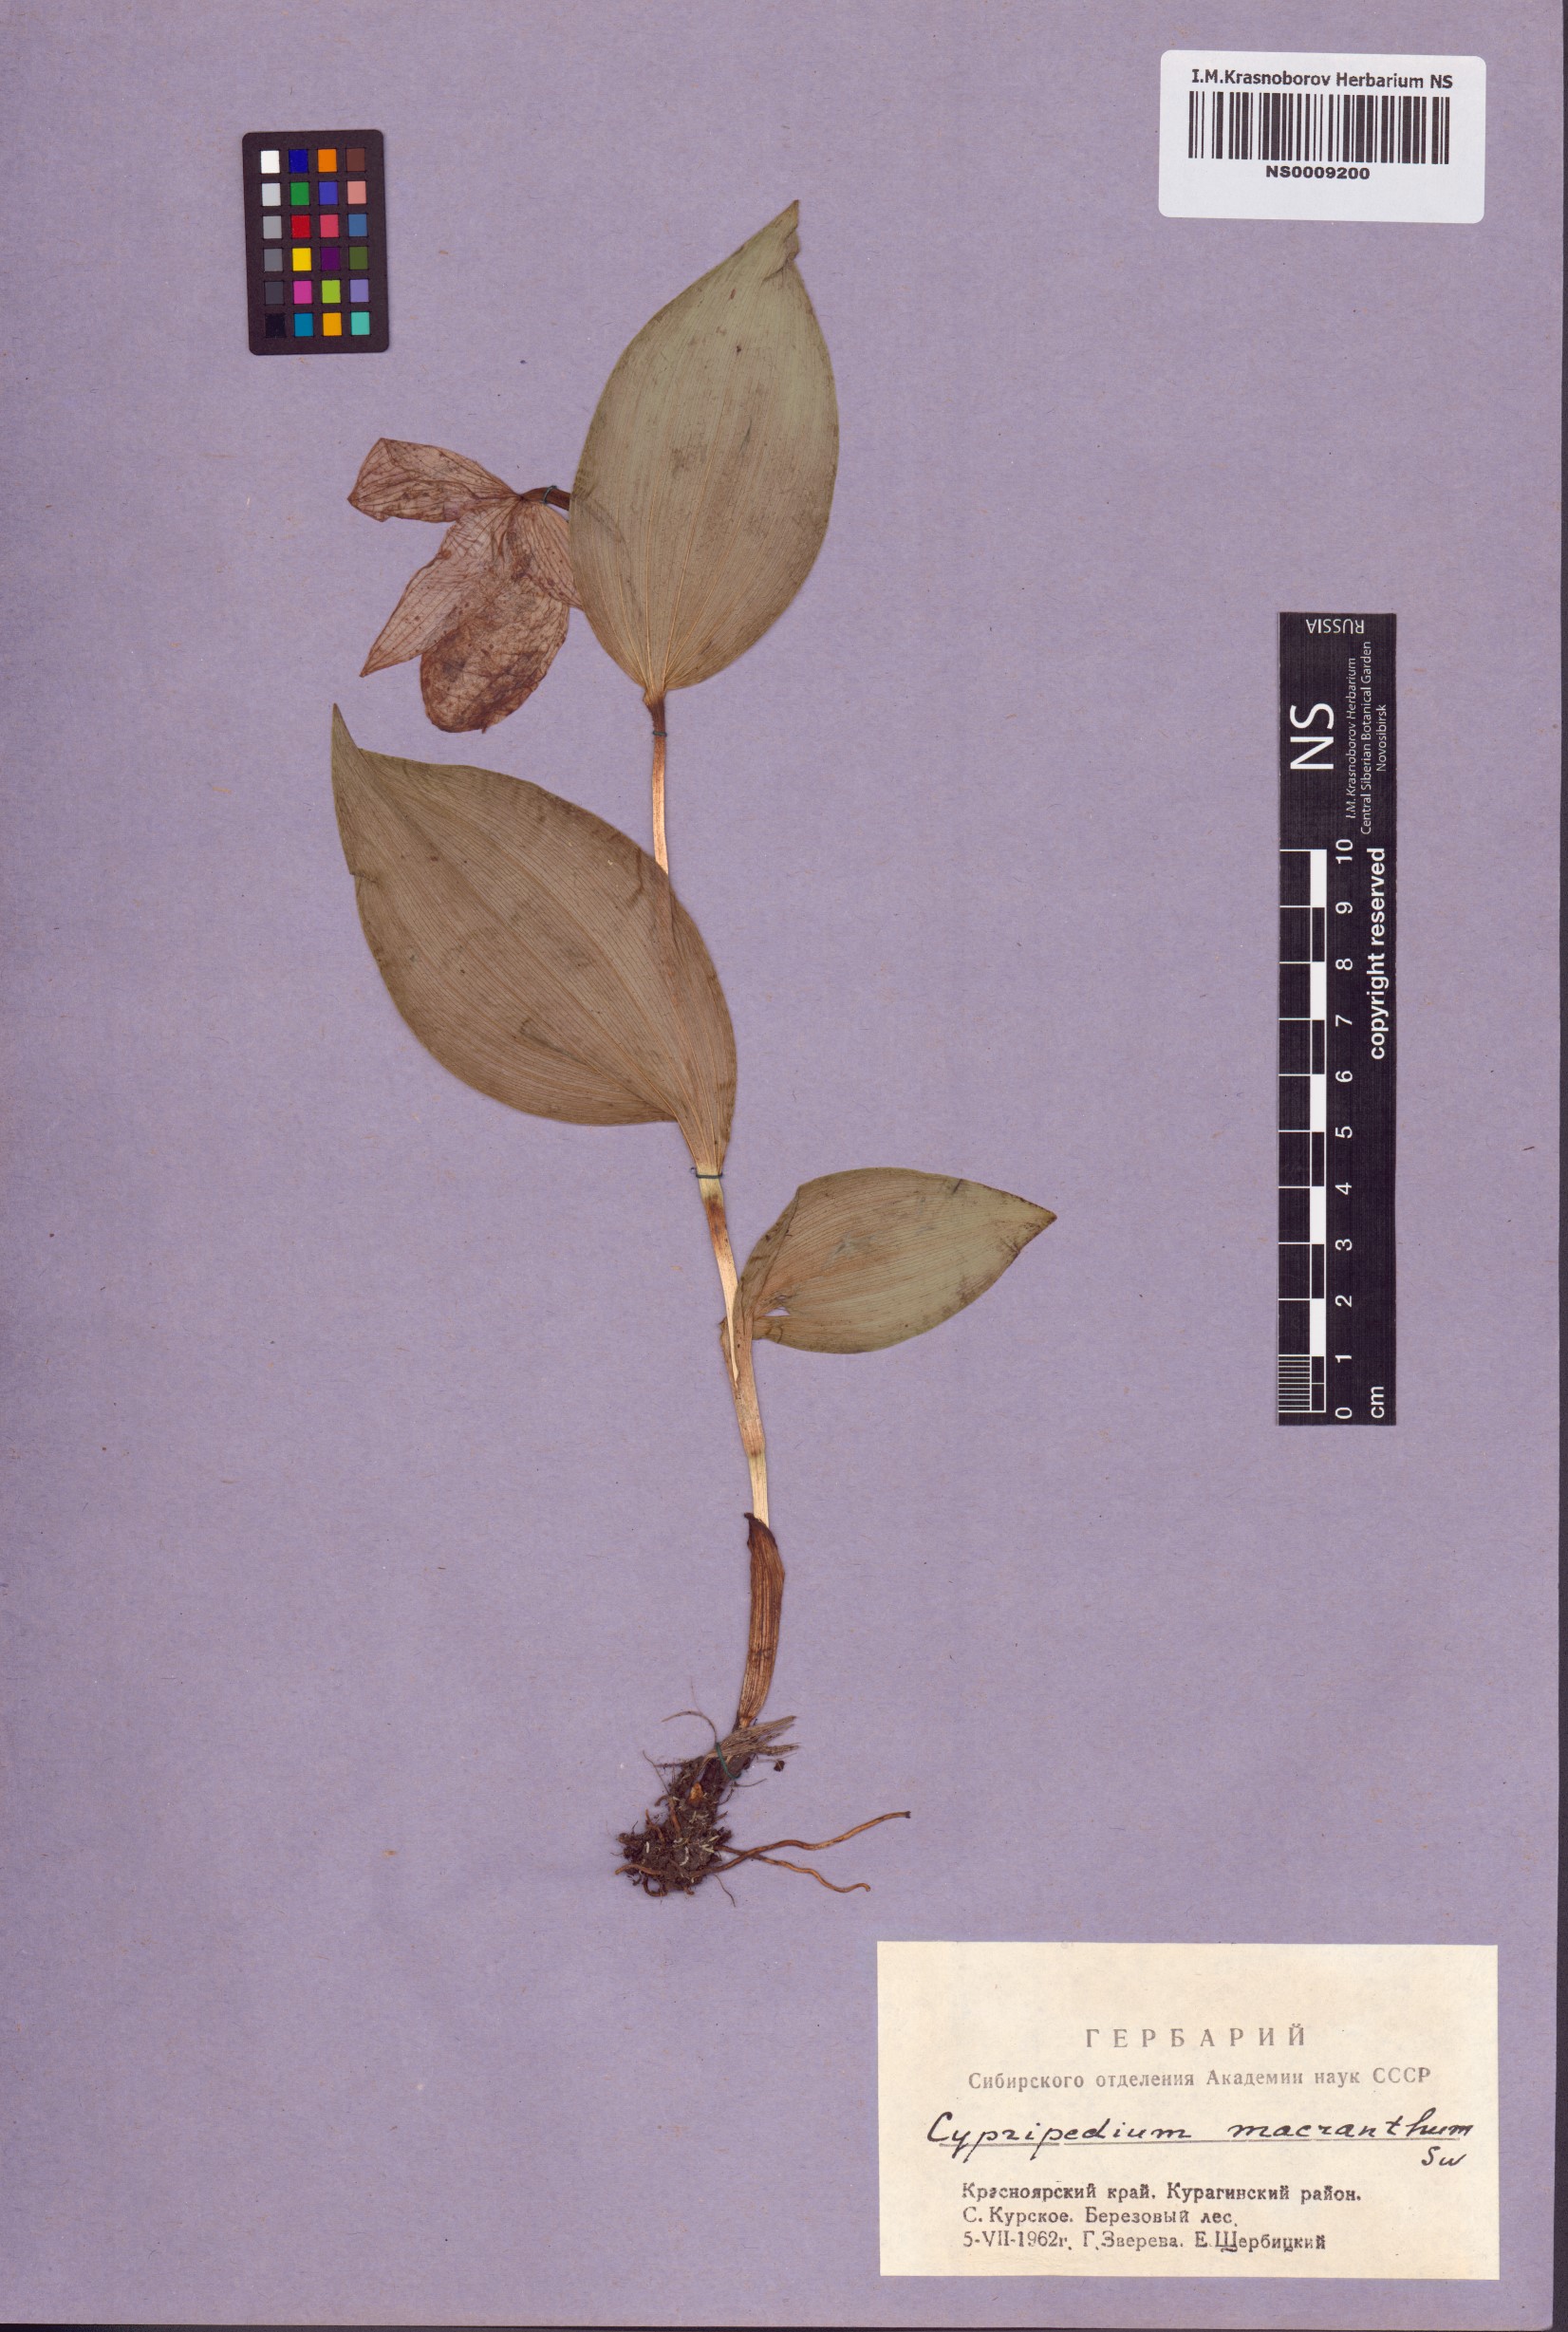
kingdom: Plantae
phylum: Tracheophyta
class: Liliopsida
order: Asparagales
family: Orchidaceae
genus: Cypripedium
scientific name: Cypripedium macranthos
